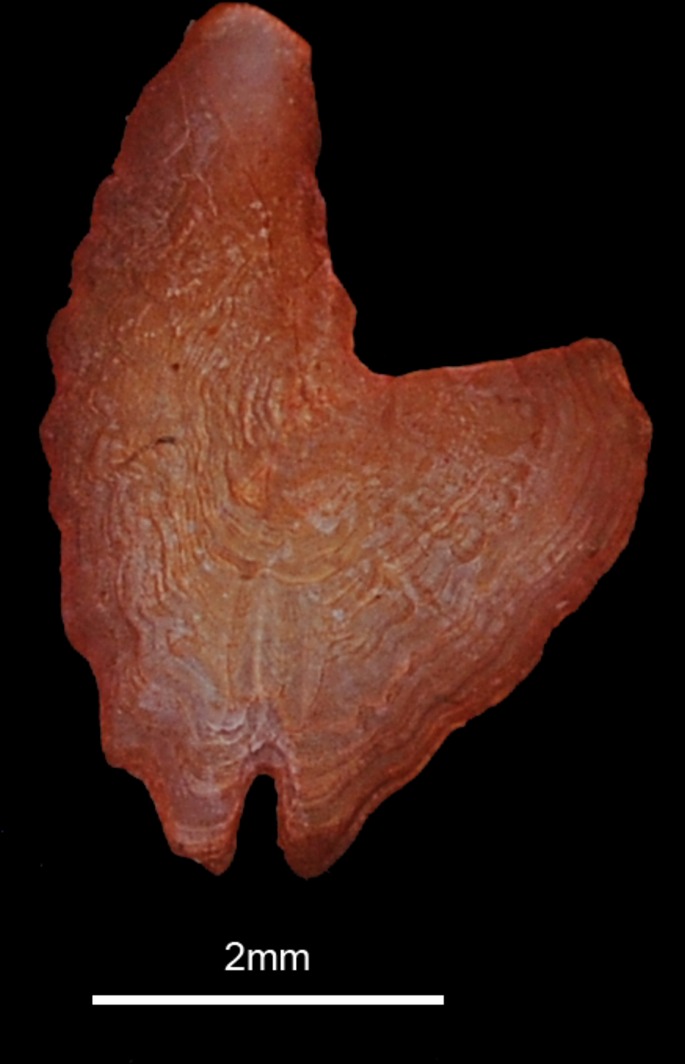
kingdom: Animalia
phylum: Chordata
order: Scorpaeniformes
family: Triglidae
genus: Chelidonichthys
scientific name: Chelidonichthys lucerna
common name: Tub gurnard
